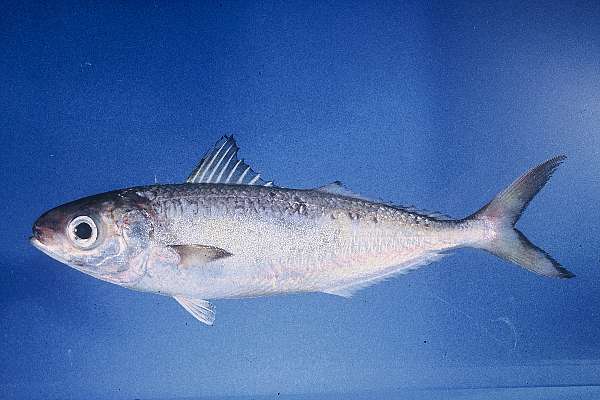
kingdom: Animalia
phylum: Chordata
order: Perciformes
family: Ariommatidae
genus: Ariomma
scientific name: Ariomma brevimanum
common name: Driftfish
